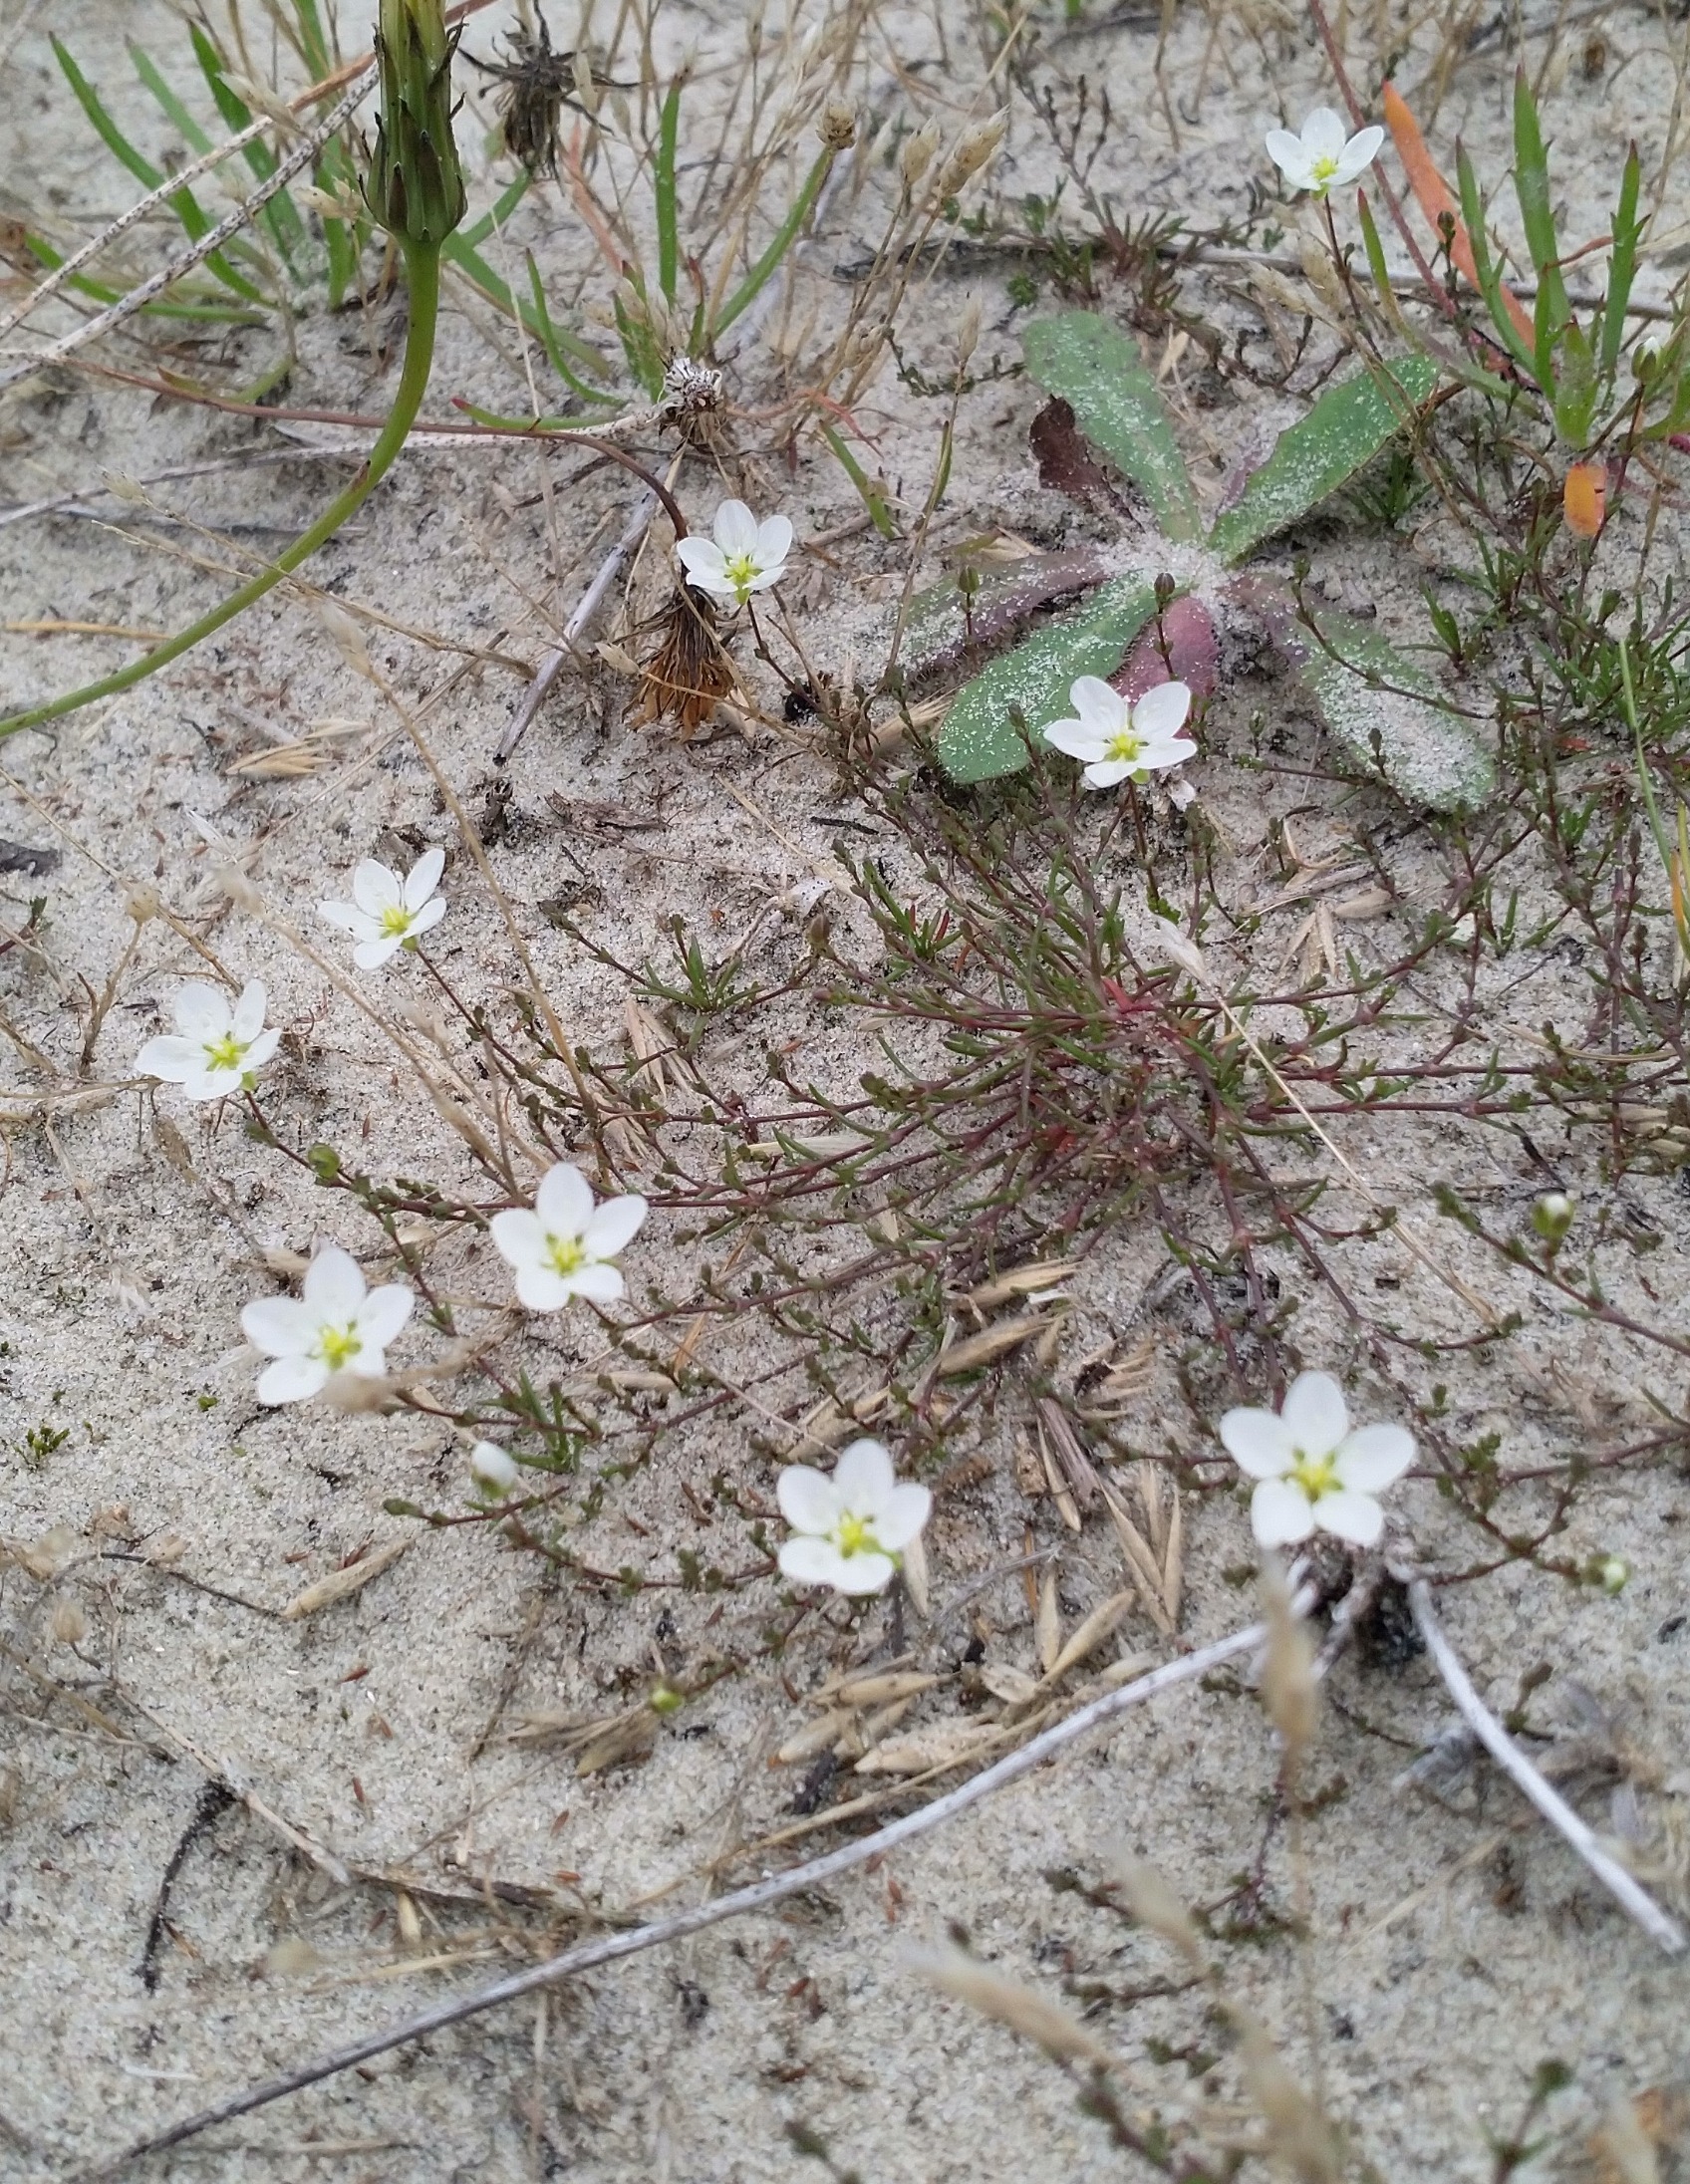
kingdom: Plantae
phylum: Tracheophyta
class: Magnoliopsida
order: Caryophyllales
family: Caryophyllaceae
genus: Sagina
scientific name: Sagina nodosa
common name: Knude-firling
